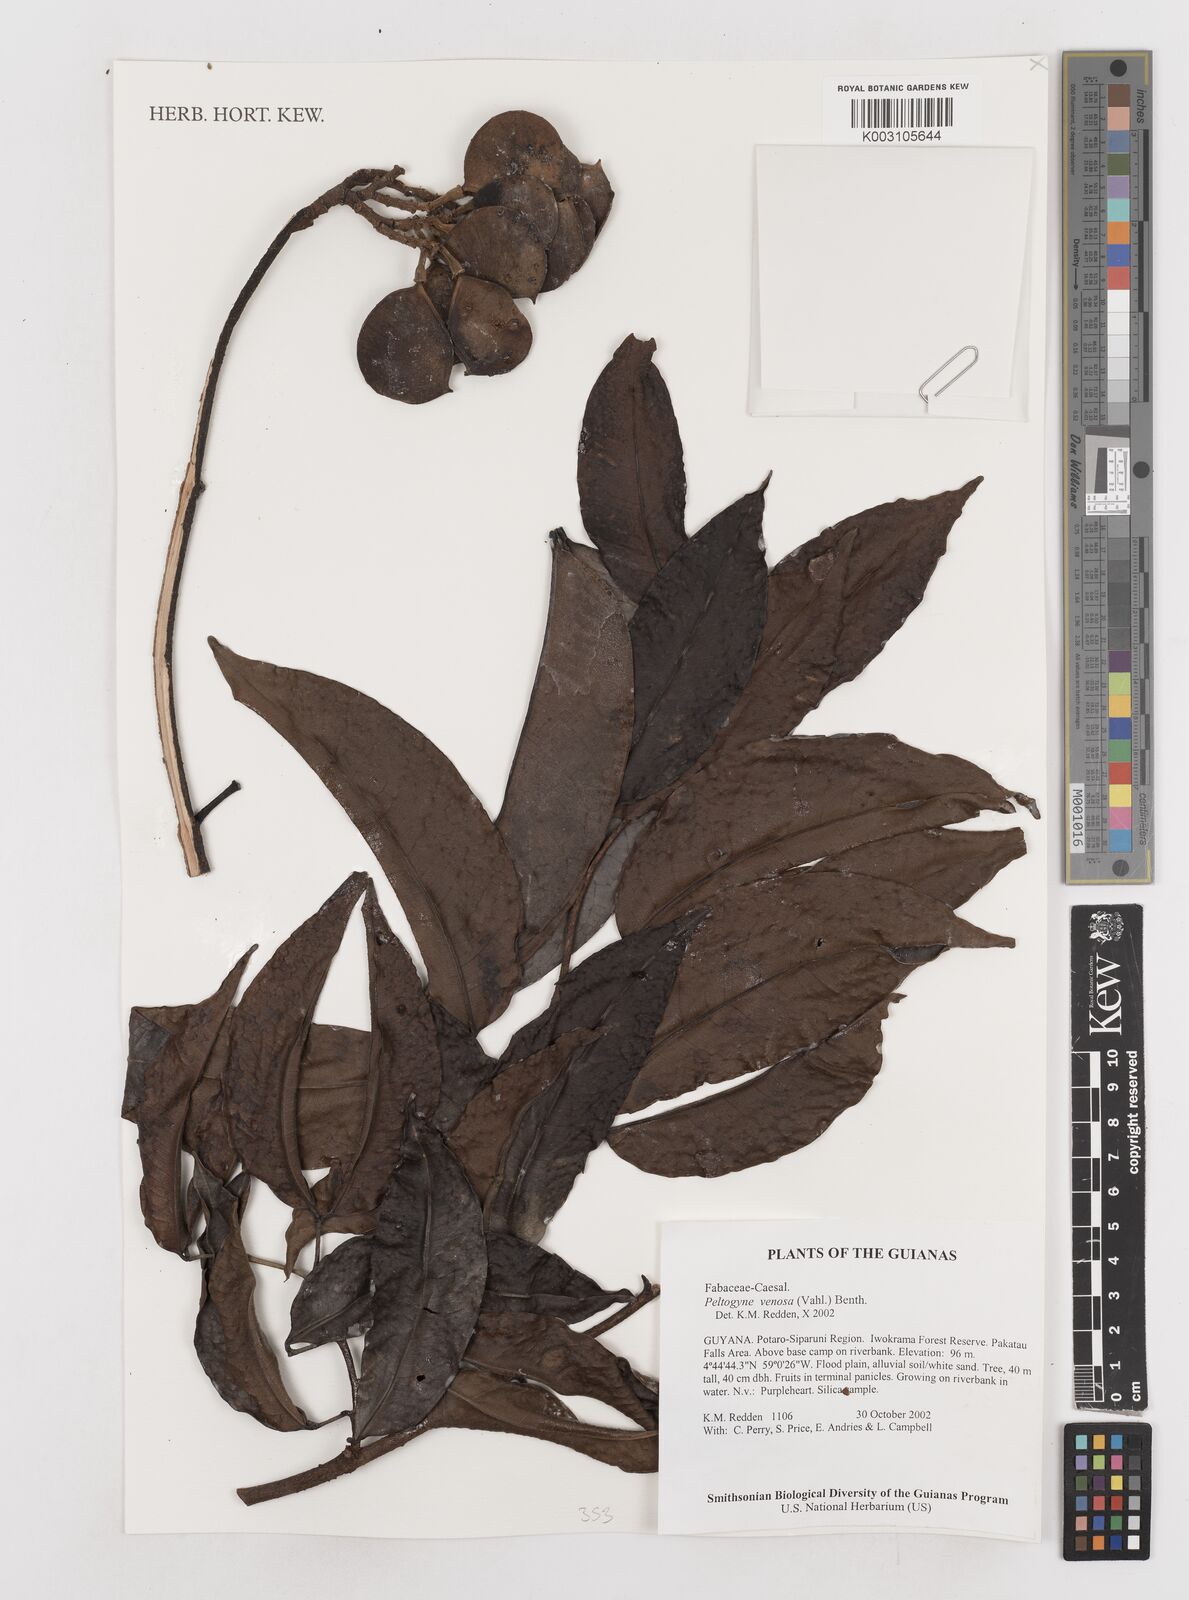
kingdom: Plantae
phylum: Tracheophyta
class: Magnoliopsida
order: Fabales
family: Fabaceae
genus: Peltogyne
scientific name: Peltogyne venosa
